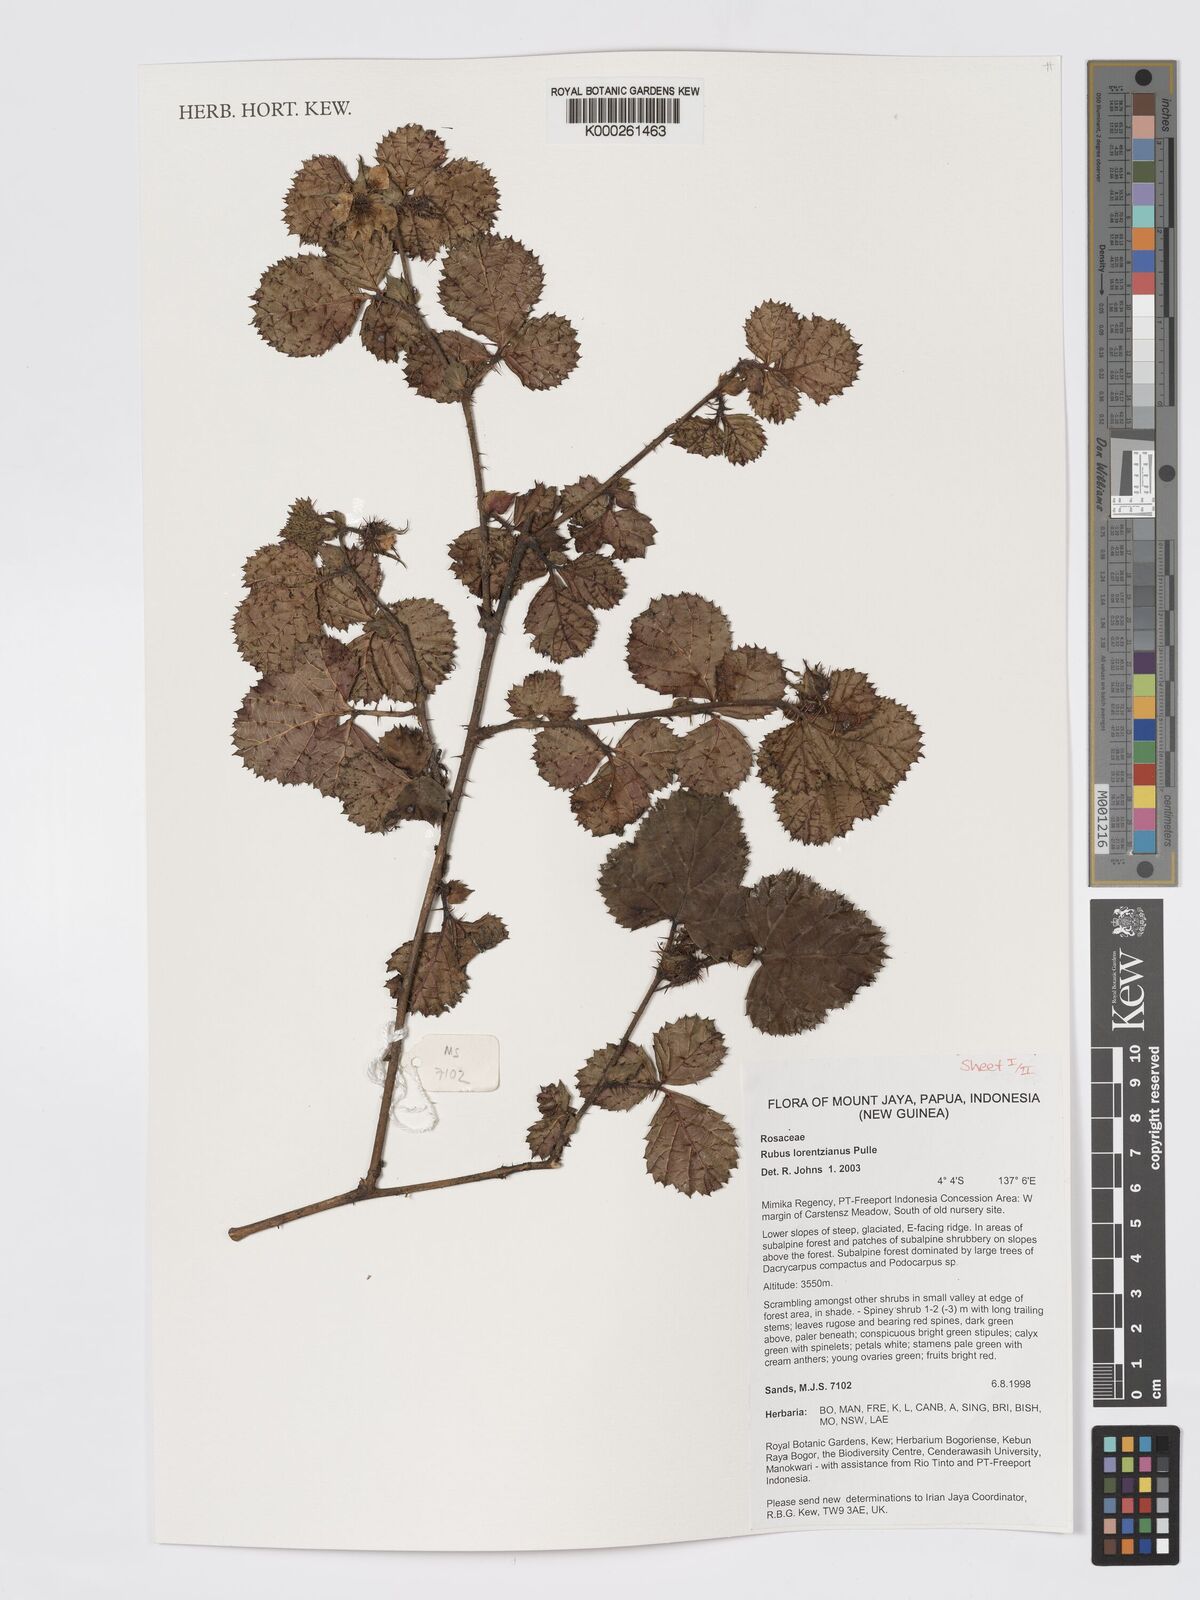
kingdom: Plantae
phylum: Tracheophyta
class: Magnoliopsida
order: Rosales
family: Rosaceae
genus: Rubus
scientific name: Rubus lorentzianus
